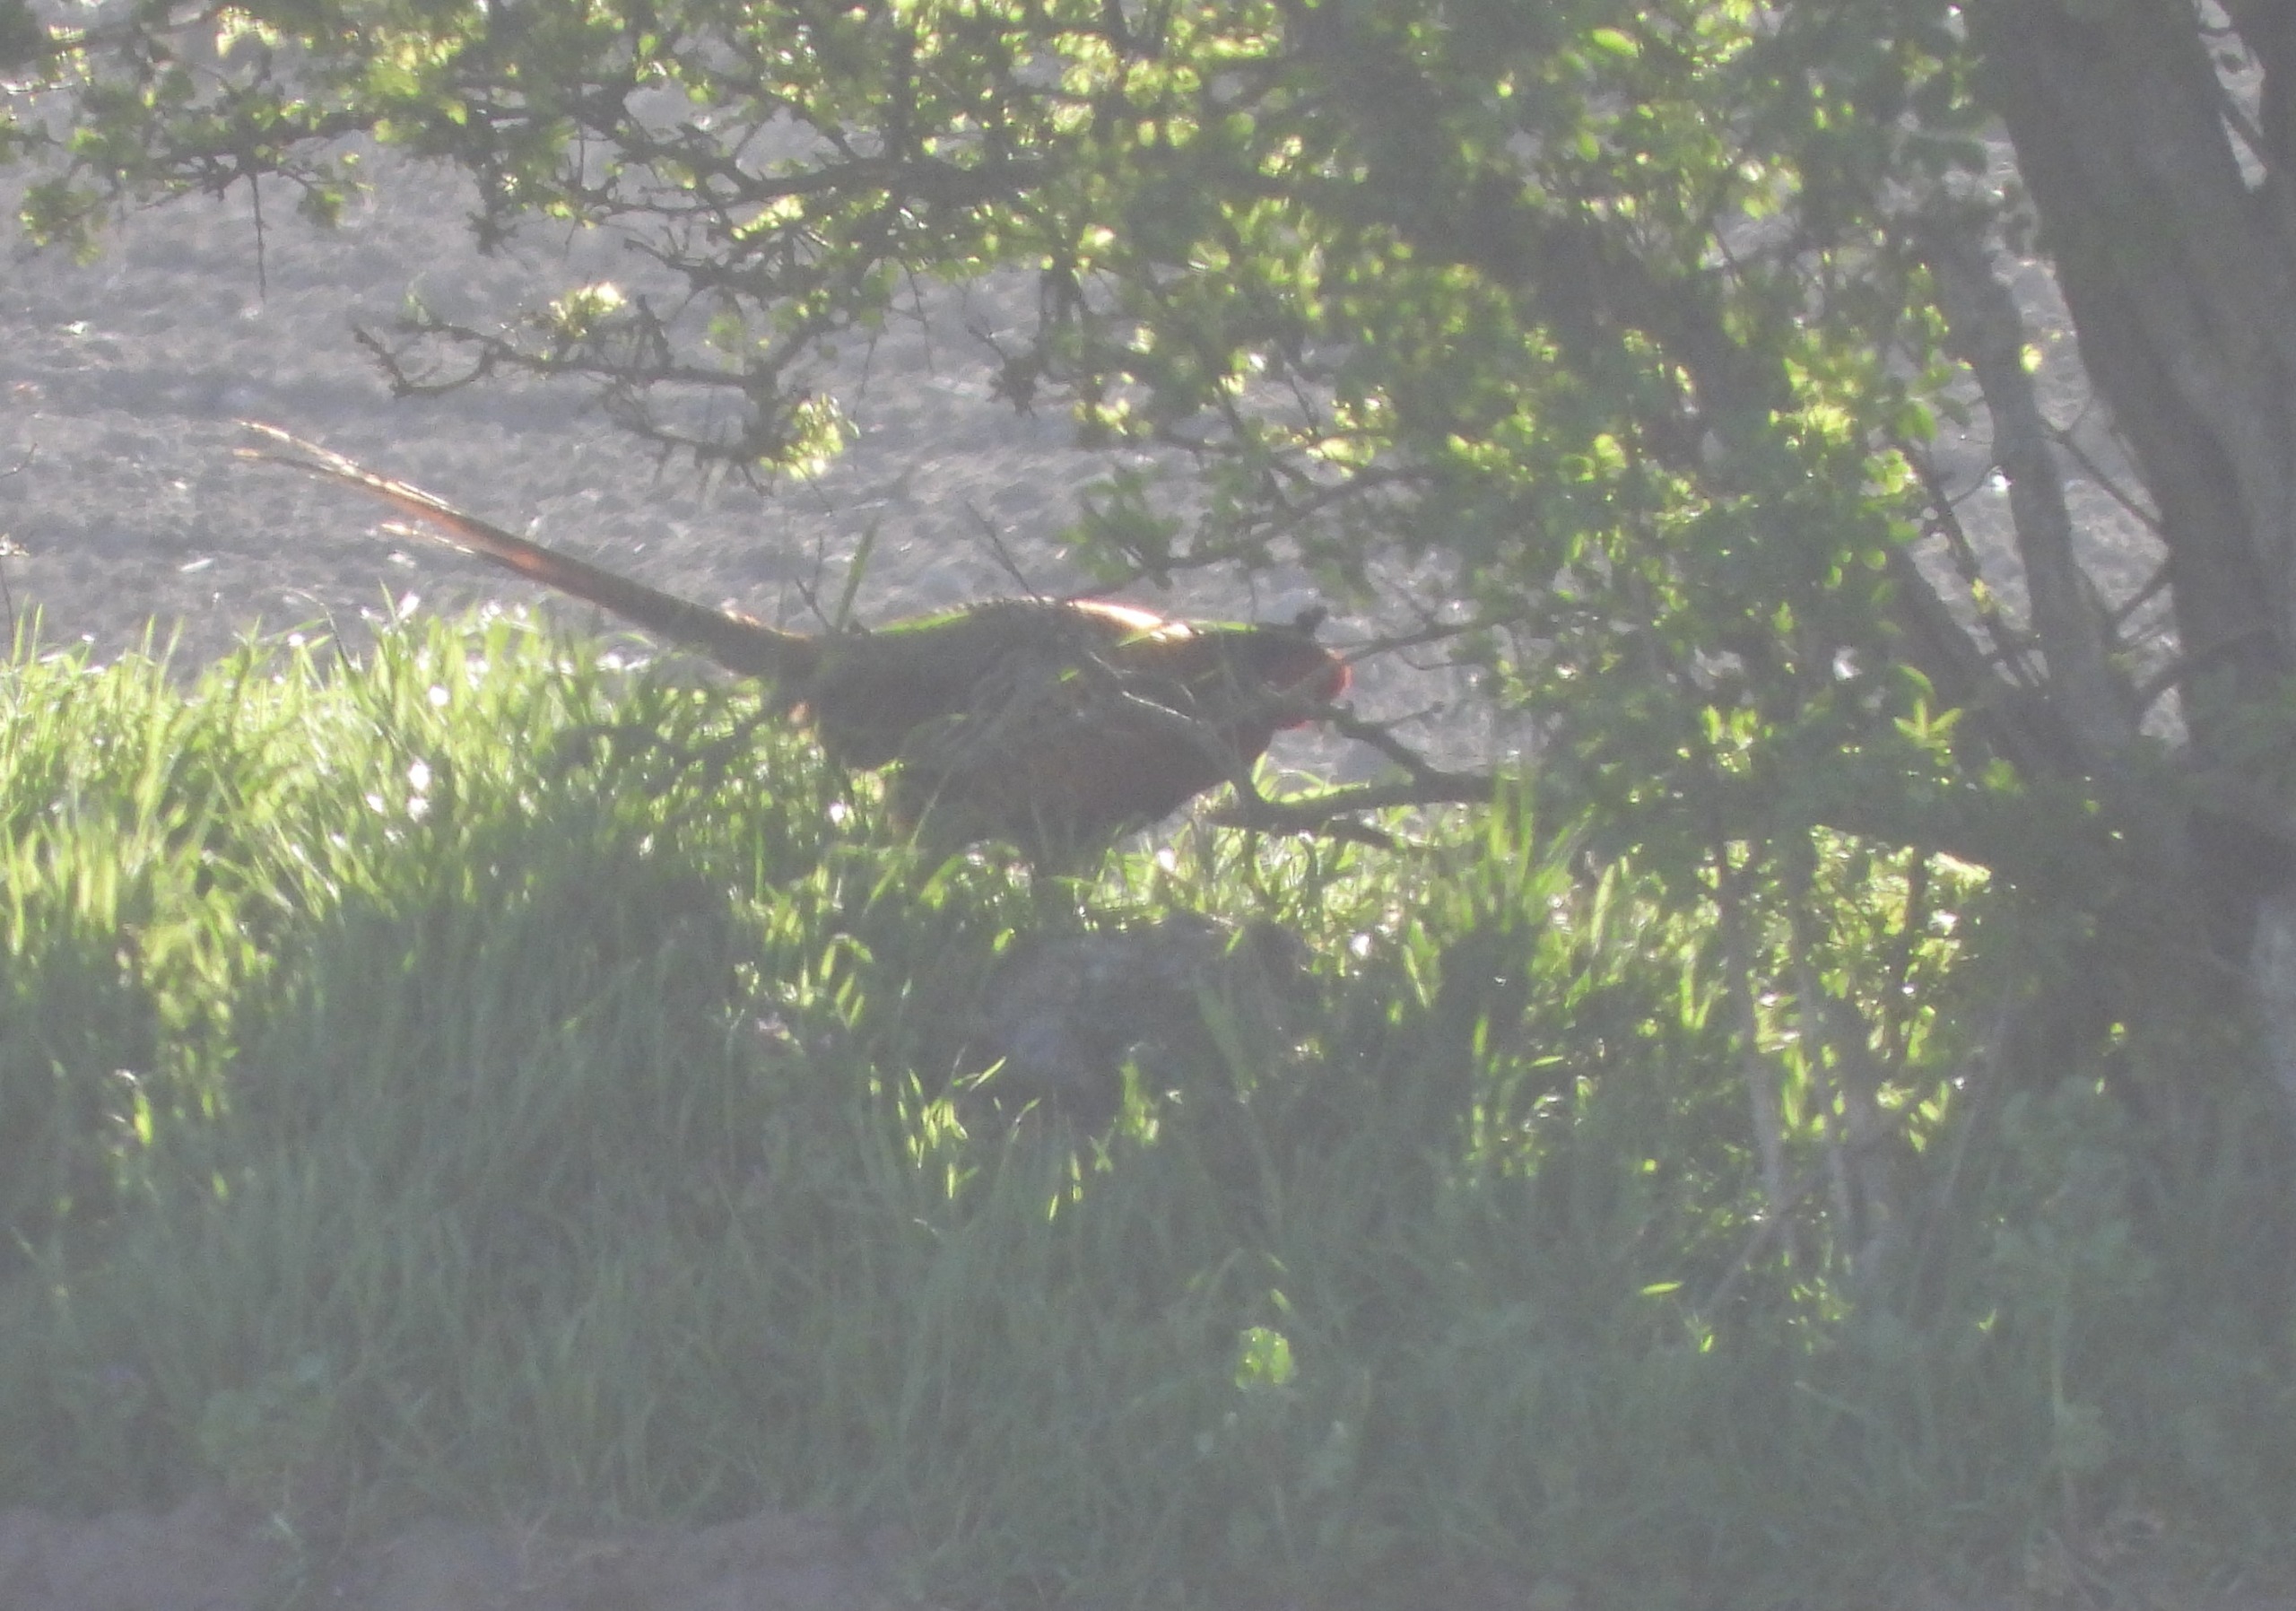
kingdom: Animalia
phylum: Chordata
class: Aves
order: Galliformes
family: Phasianidae
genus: Phasianus
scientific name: Phasianus colchicus
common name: Fasan
